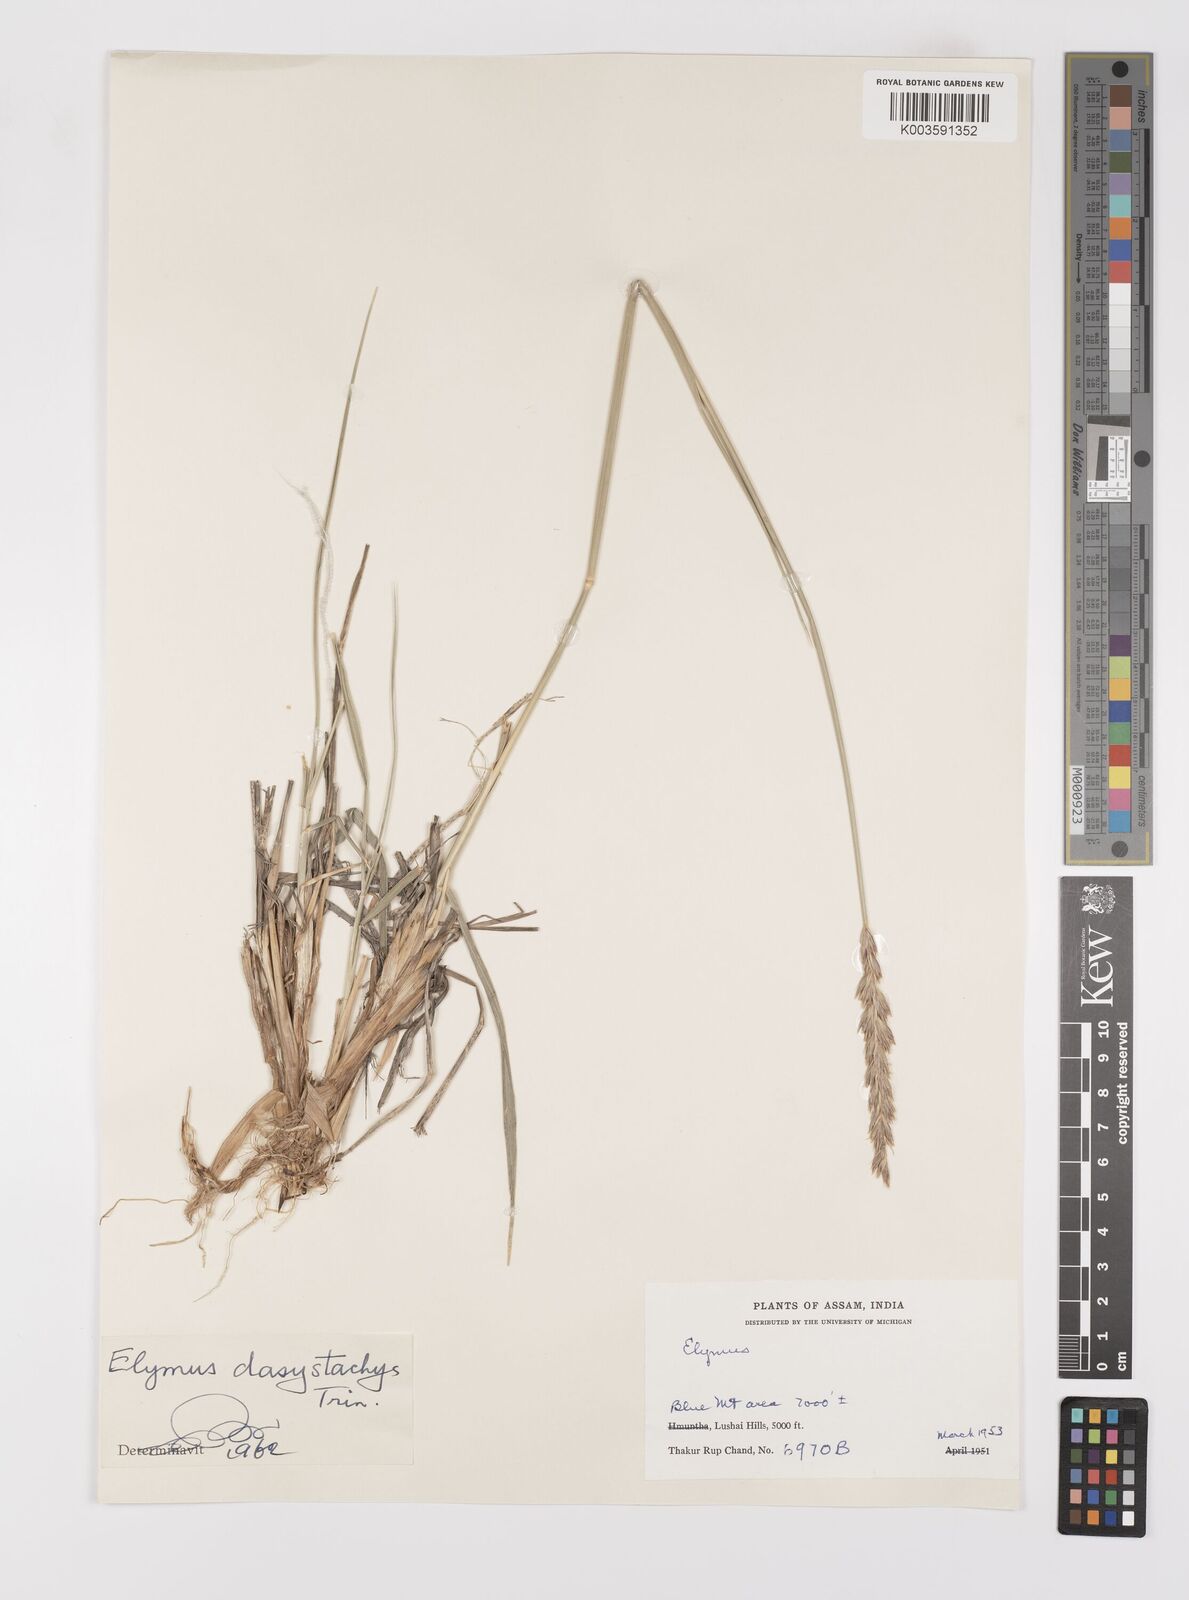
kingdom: Plantae
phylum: Tracheophyta
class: Liliopsida
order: Poales
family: Poaceae
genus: Leymus
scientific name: Leymus secalinus
